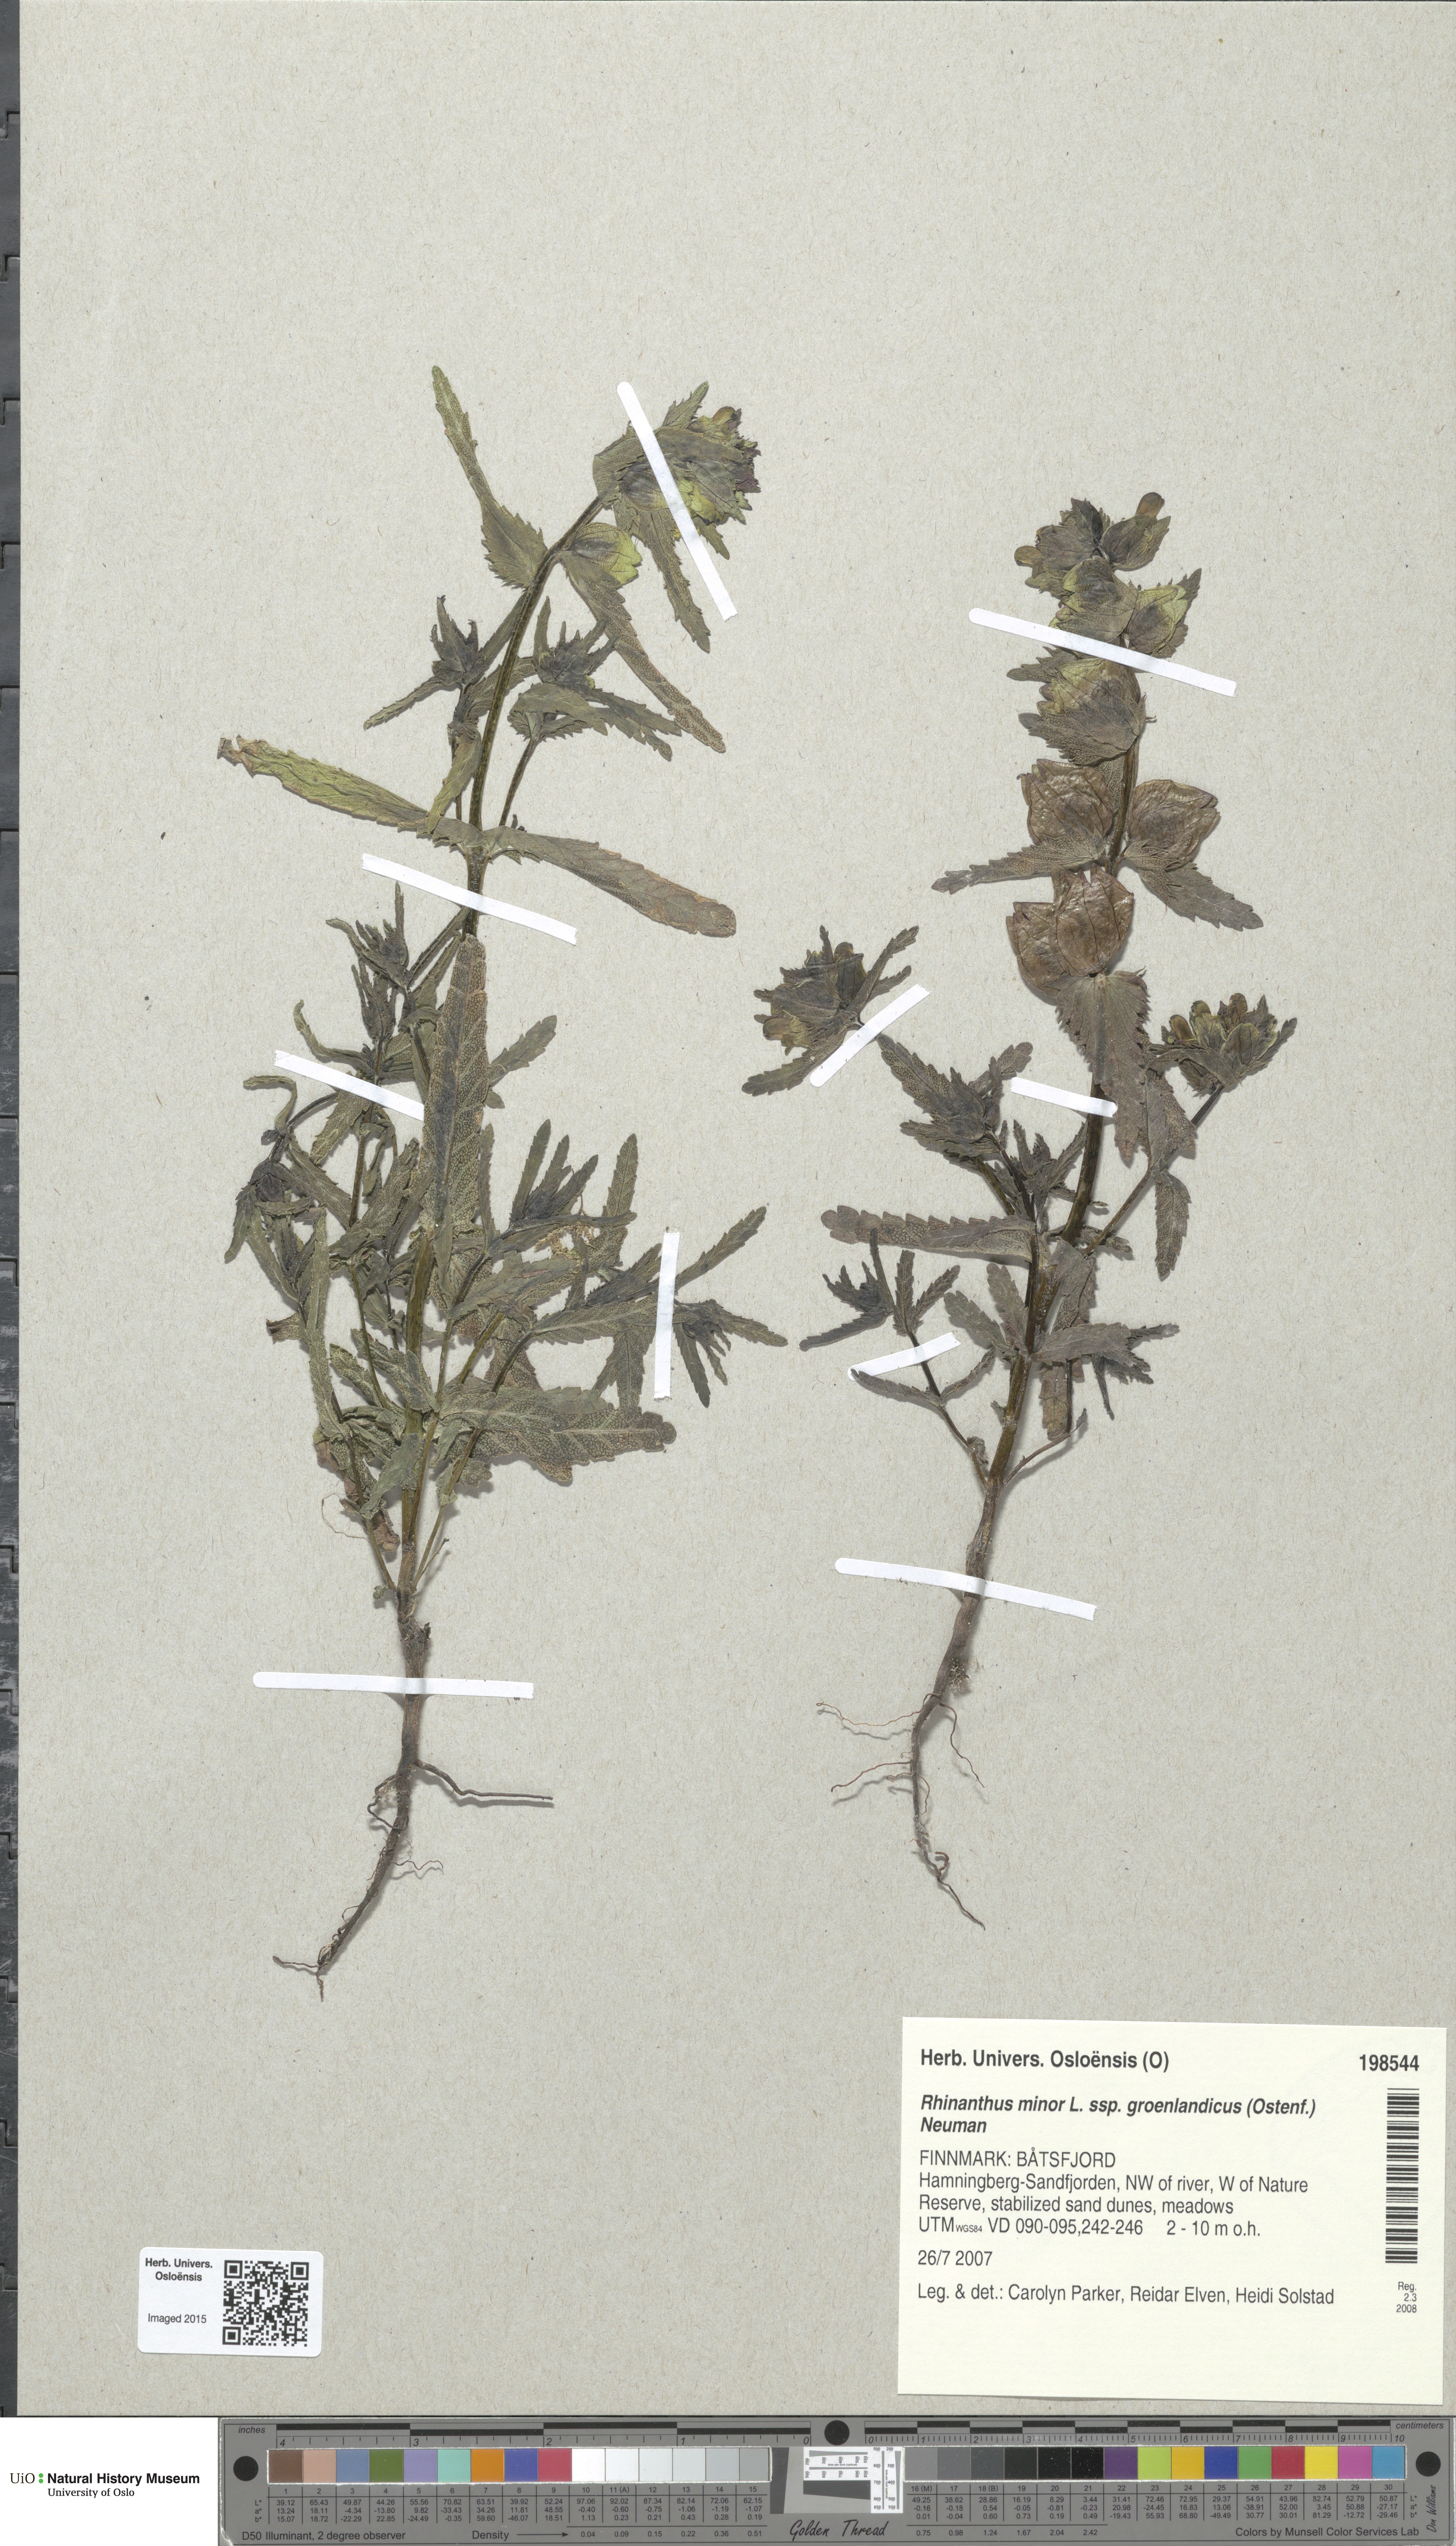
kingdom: Plantae
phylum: Tracheophyta
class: Magnoliopsida
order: Lamiales
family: Orobanchaceae
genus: Rhinanthus
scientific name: Rhinanthus groenlandicus
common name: Little yellow rattle
